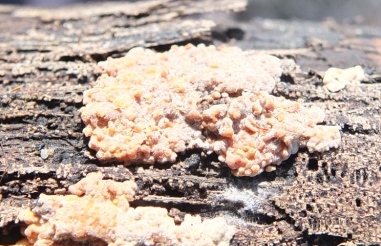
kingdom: Fungi
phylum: Basidiomycota
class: Agaricomycetes
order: Russulales
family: Peniophoraceae
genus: Peniophora
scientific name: Peniophora polygonia
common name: polygon-voksskind
